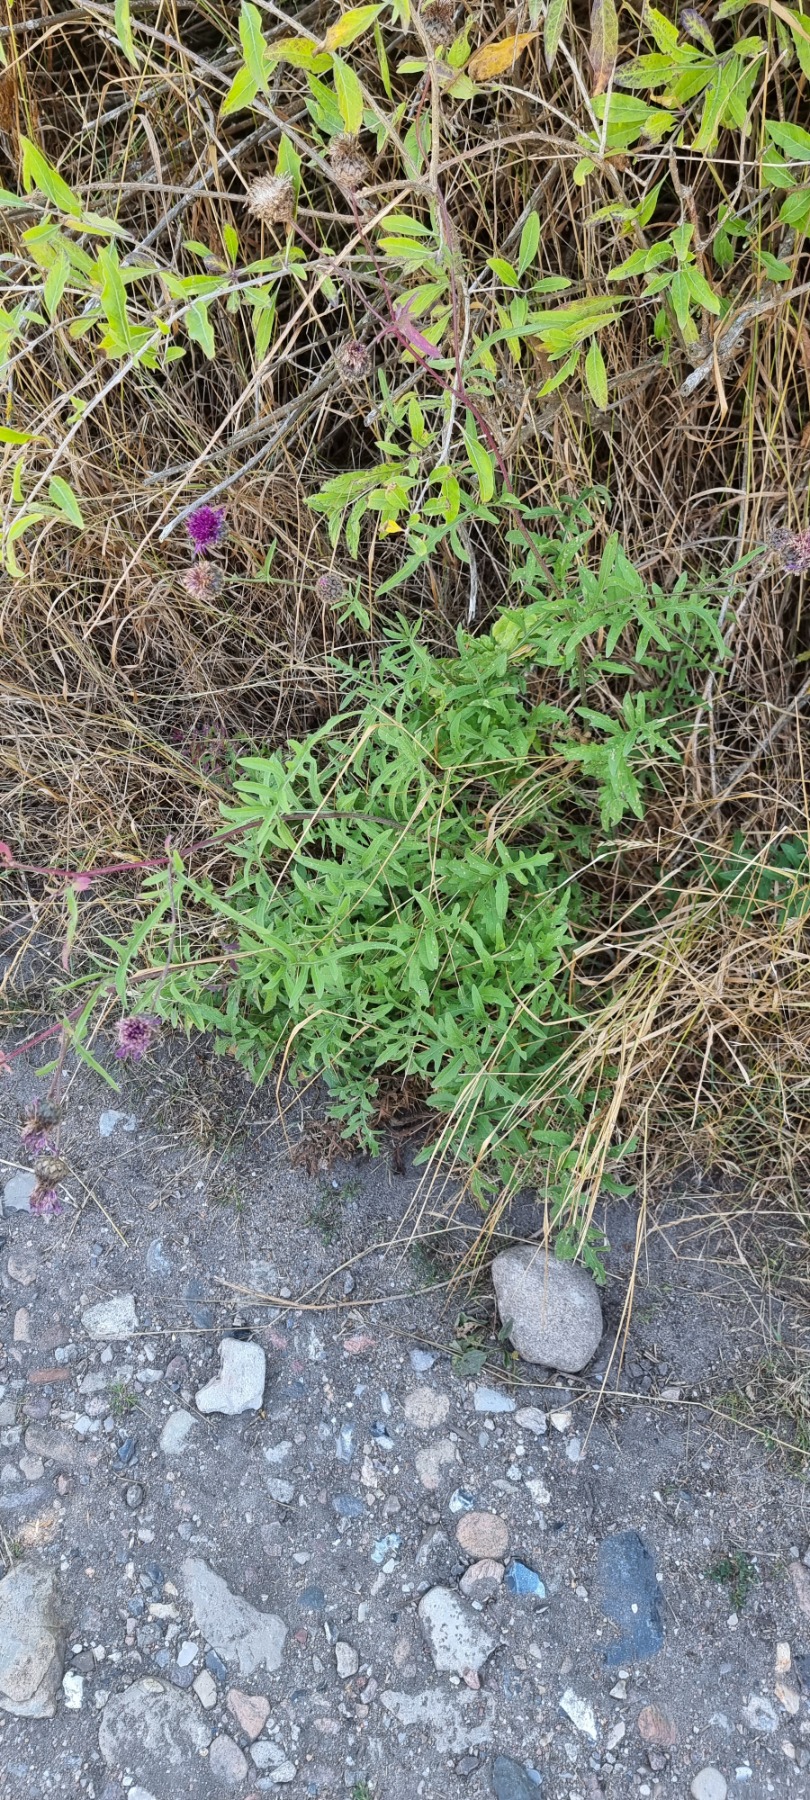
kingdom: Plantae
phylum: Tracheophyta
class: Magnoliopsida
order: Asterales
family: Asteraceae
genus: Centaurea
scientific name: Centaurea scabiosa
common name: Stor knopurt
